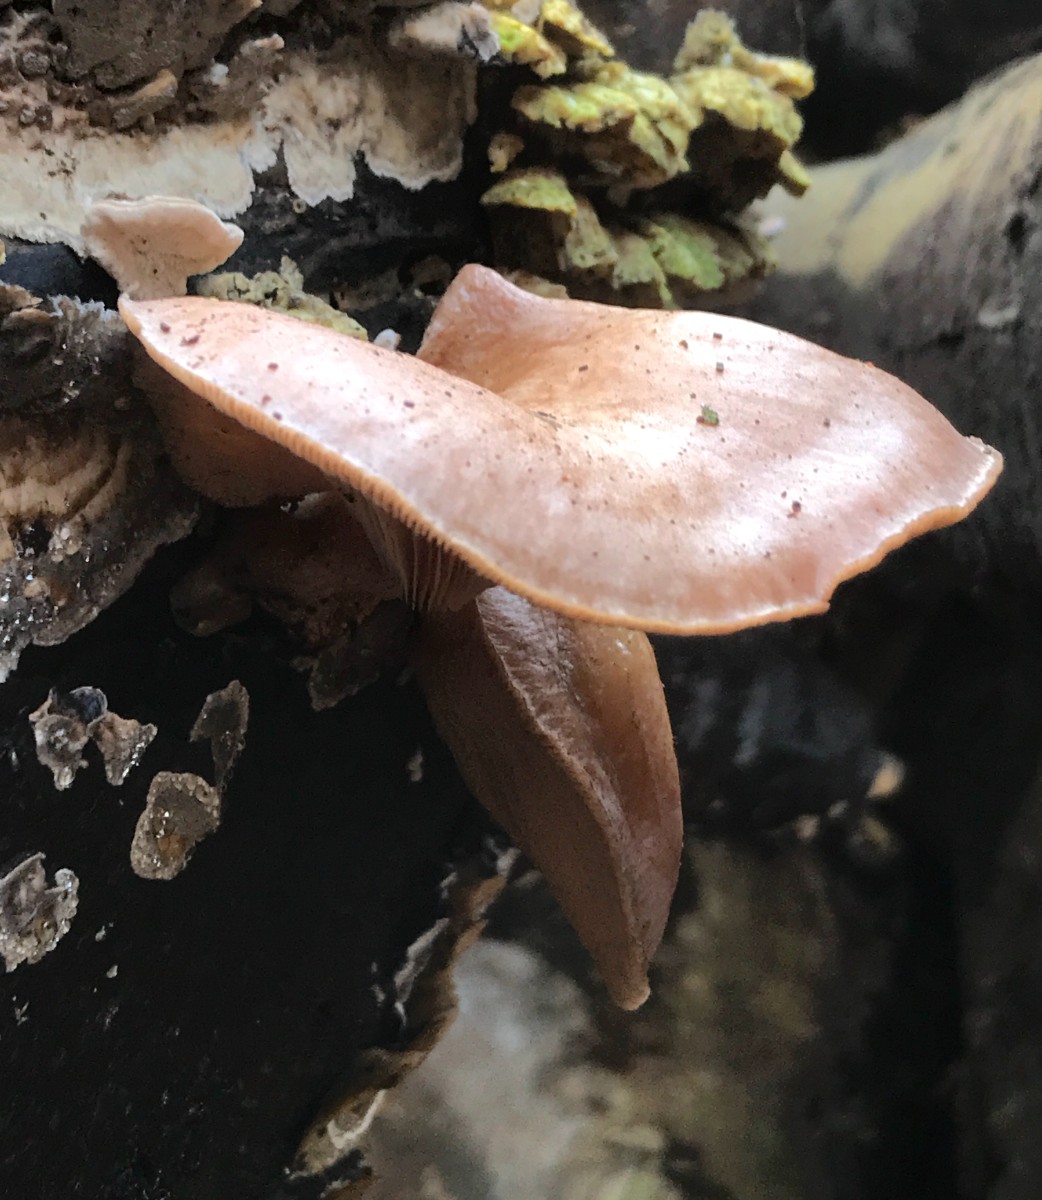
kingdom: Fungi
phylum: Basidiomycota
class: Agaricomycetes
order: Agaricales
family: Sarcomyxaceae
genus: Sarcomyxa
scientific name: Sarcomyxa serotina
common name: gummihat
